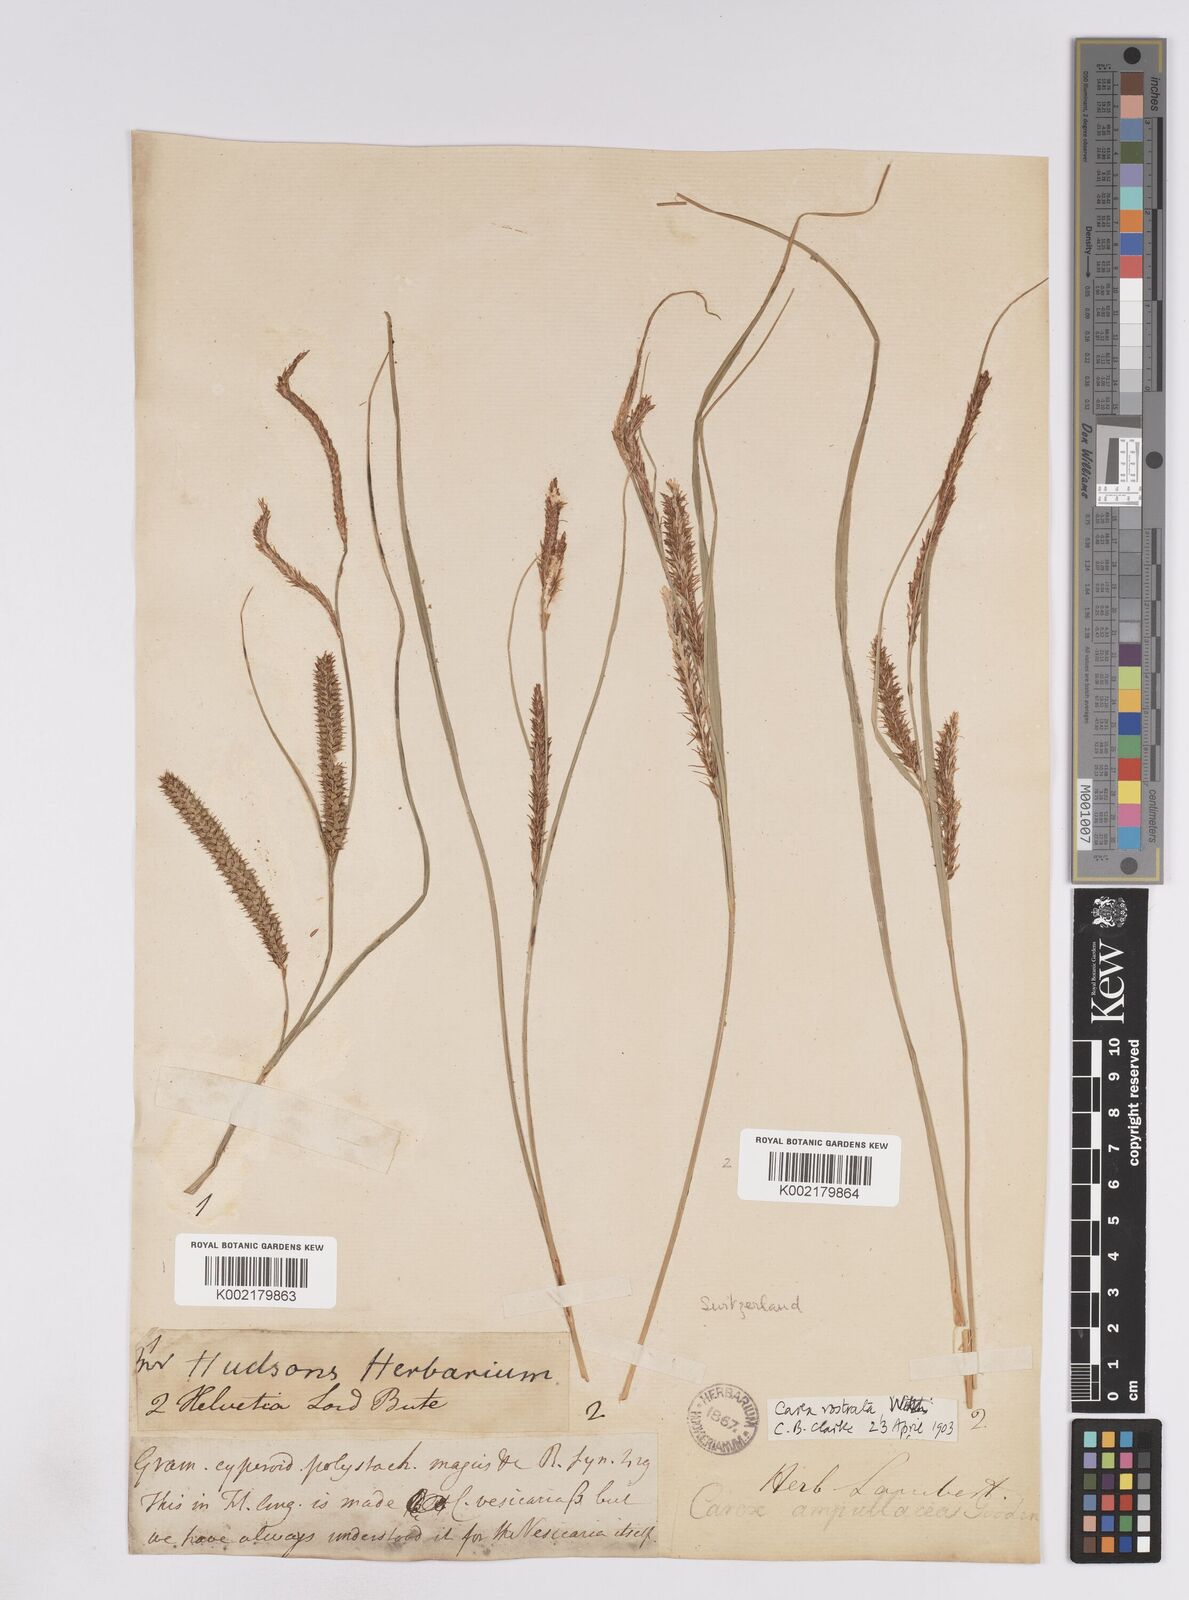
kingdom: Plantae
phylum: Tracheophyta
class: Liliopsida
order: Poales
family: Cyperaceae
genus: Carex
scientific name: Carex rostrata
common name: Bottle sedge
